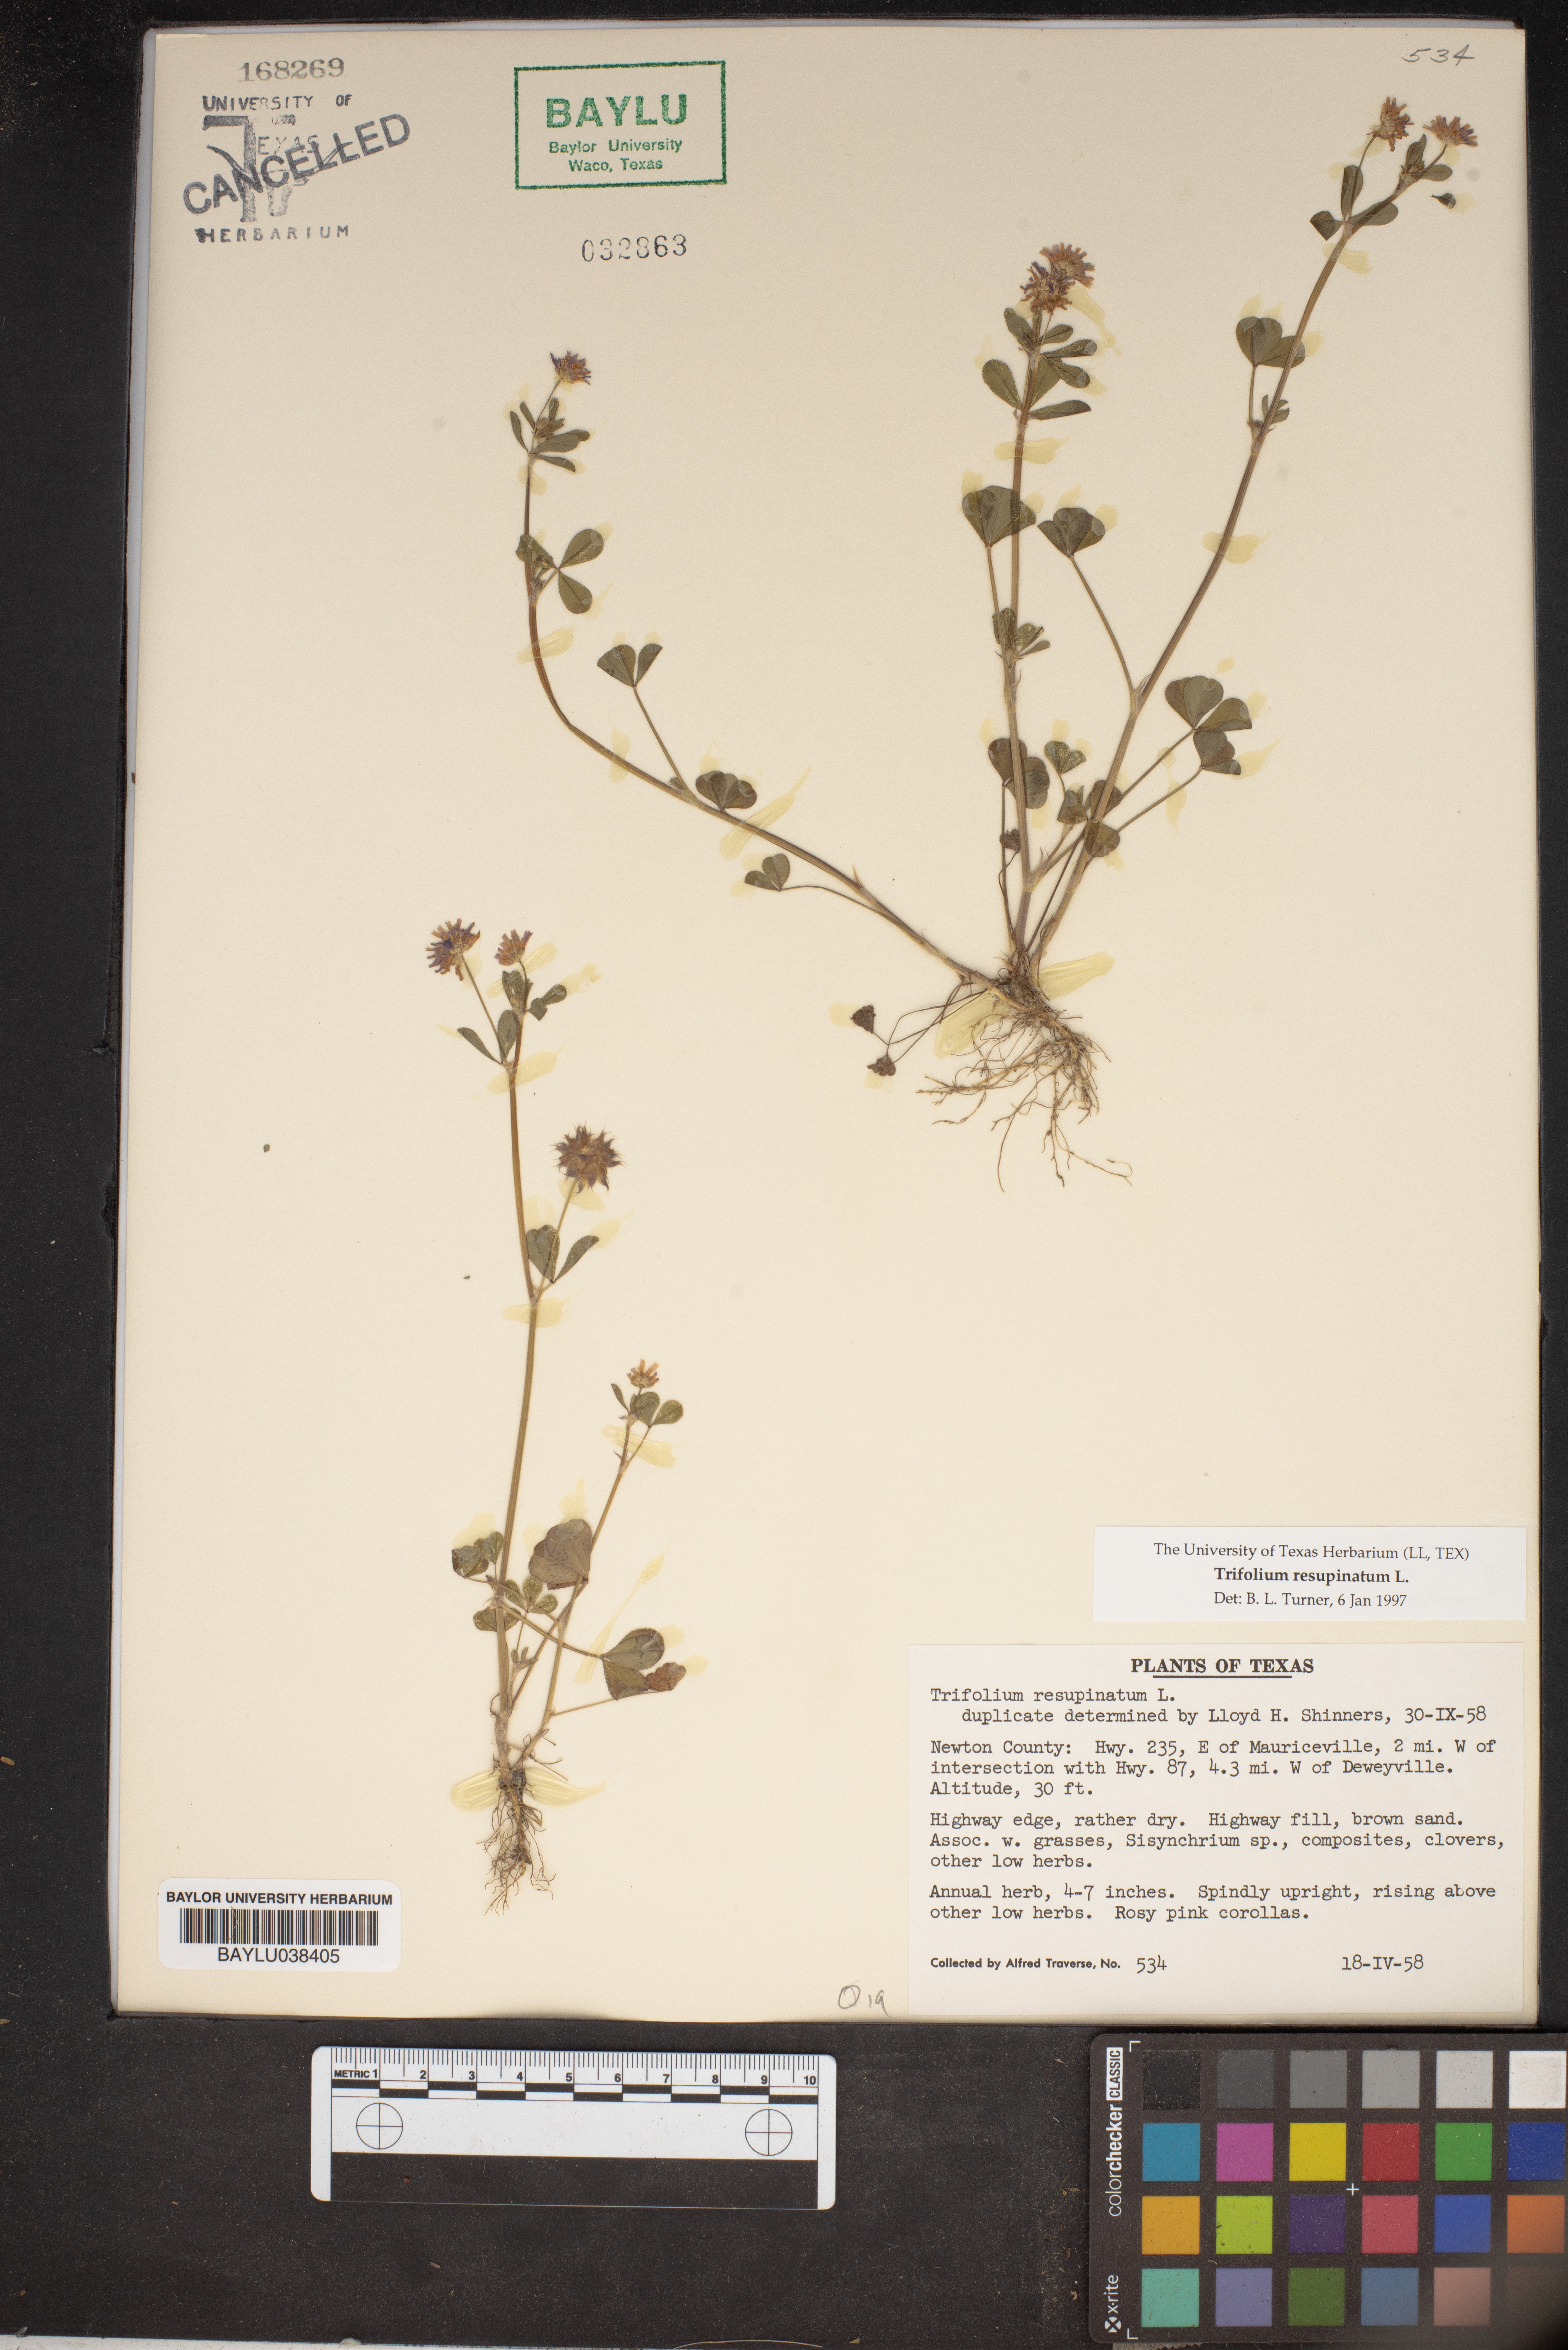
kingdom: Plantae
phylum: Tracheophyta
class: Magnoliopsida
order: Fabales
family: Fabaceae
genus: Trifolium
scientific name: Trifolium resupinatum
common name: Reversed clover
